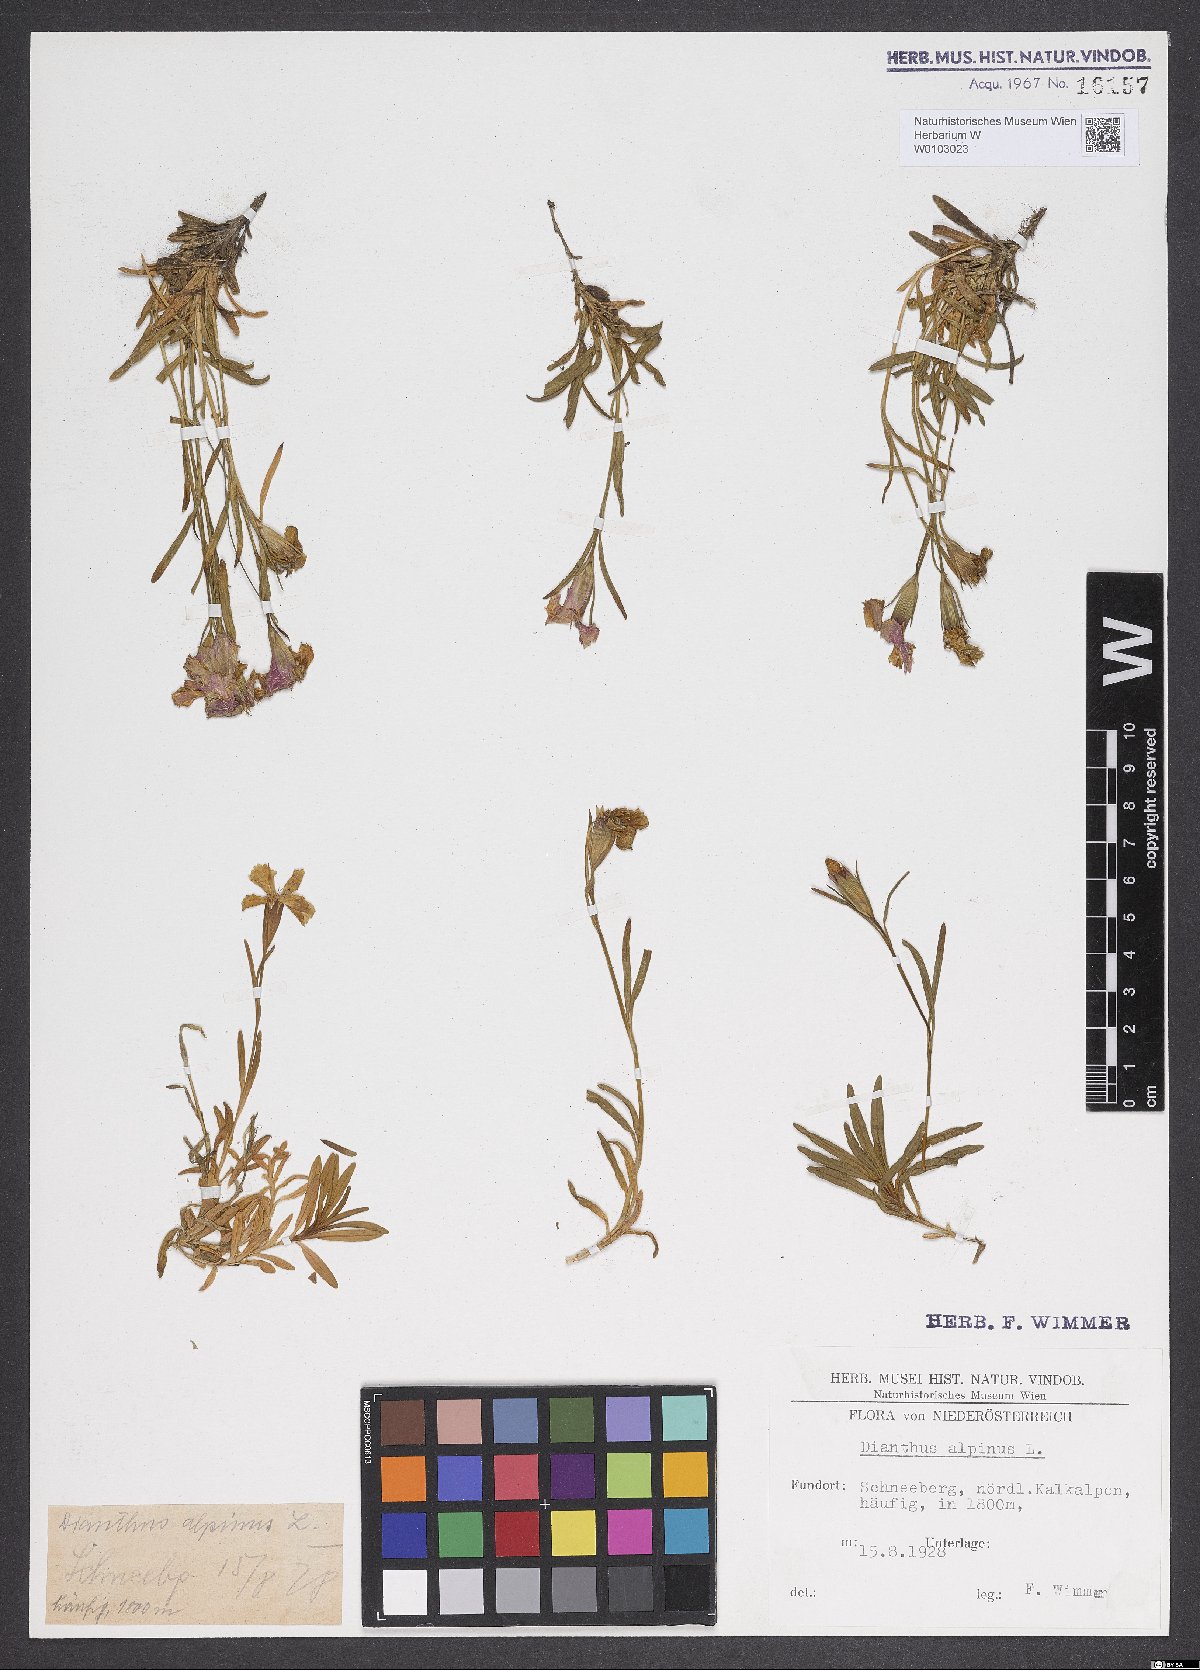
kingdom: Plantae
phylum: Tracheophyta
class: Magnoliopsida
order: Caryophyllales
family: Caryophyllaceae
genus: Dianthus
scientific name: Dianthus alpinus
